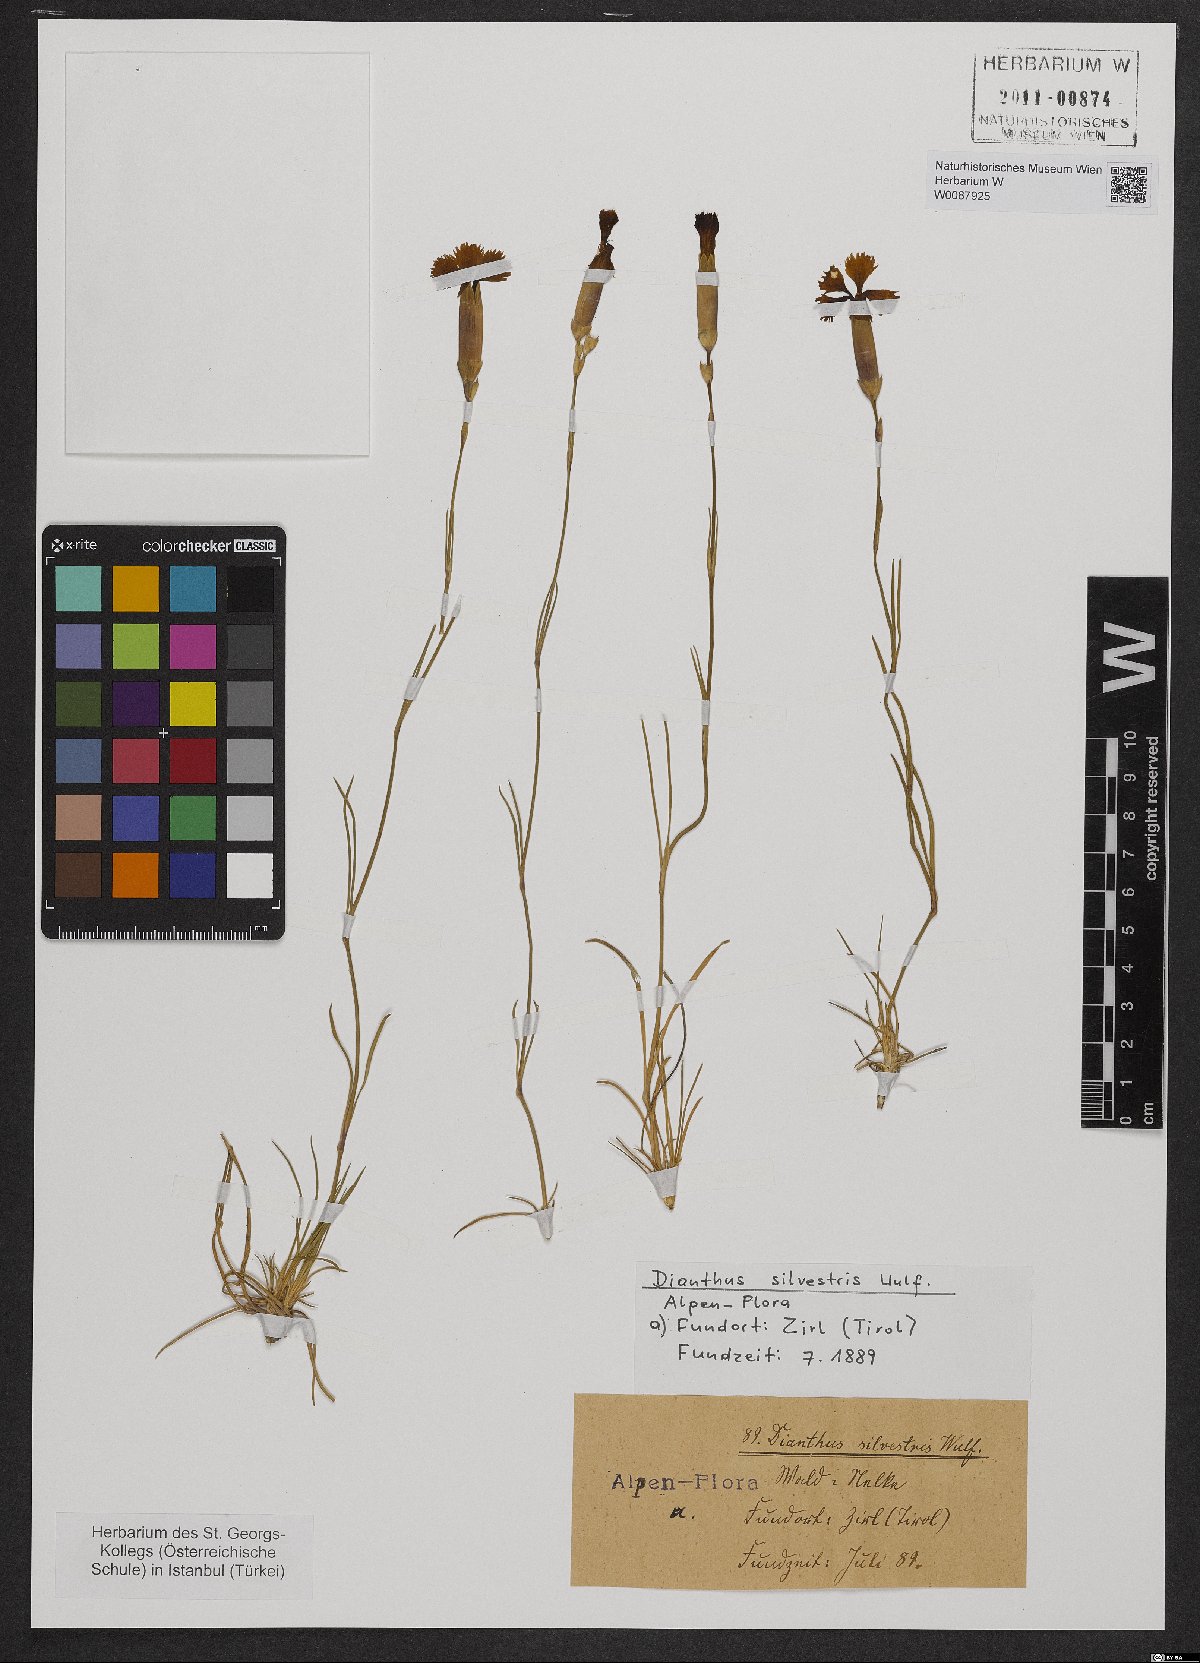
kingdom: Plantae
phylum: Tracheophyta
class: Magnoliopsida
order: Caryophyllales
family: Caryophyllaceae
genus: Dianthus
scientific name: Dianthus sylvestris
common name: Wood pink
